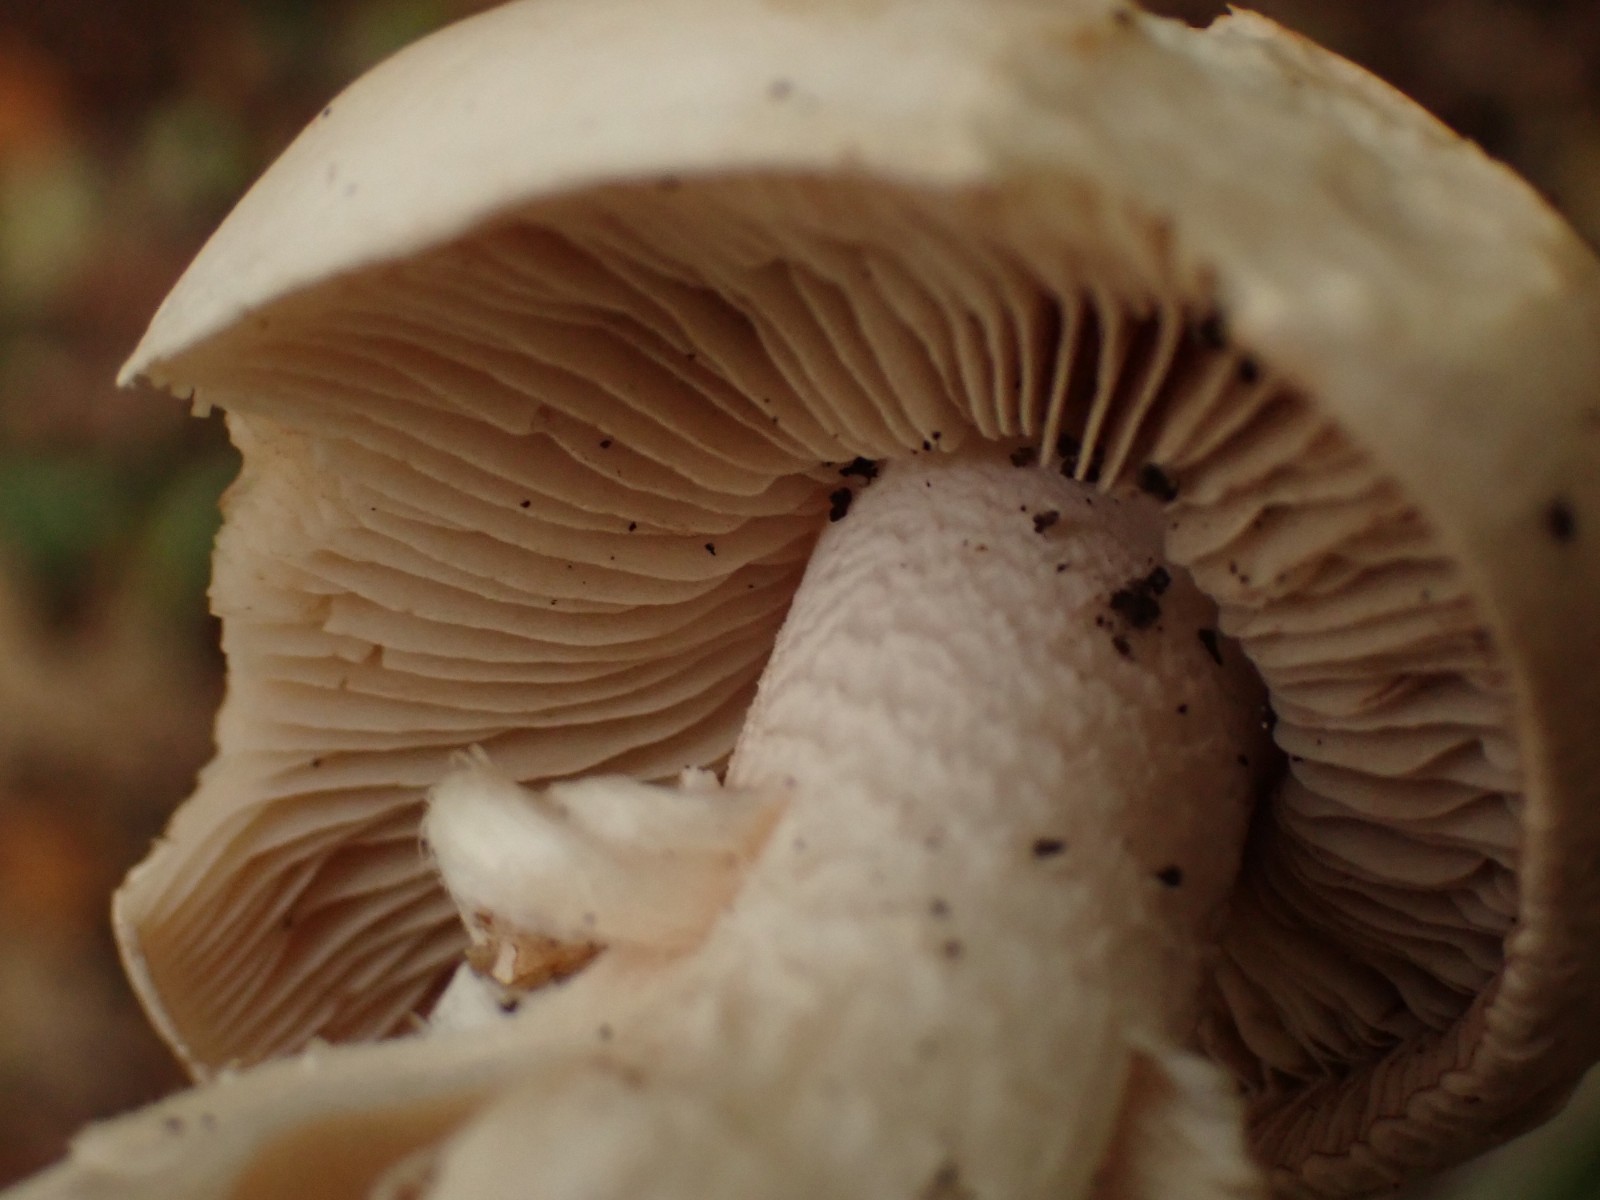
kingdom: Fungi
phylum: Basidiomycota
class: Agaricomycetes
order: Agaricales
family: Hymenogastraceae
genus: Hebeloma
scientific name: Hebeloma sinapizans
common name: ræddike-tåreblad
